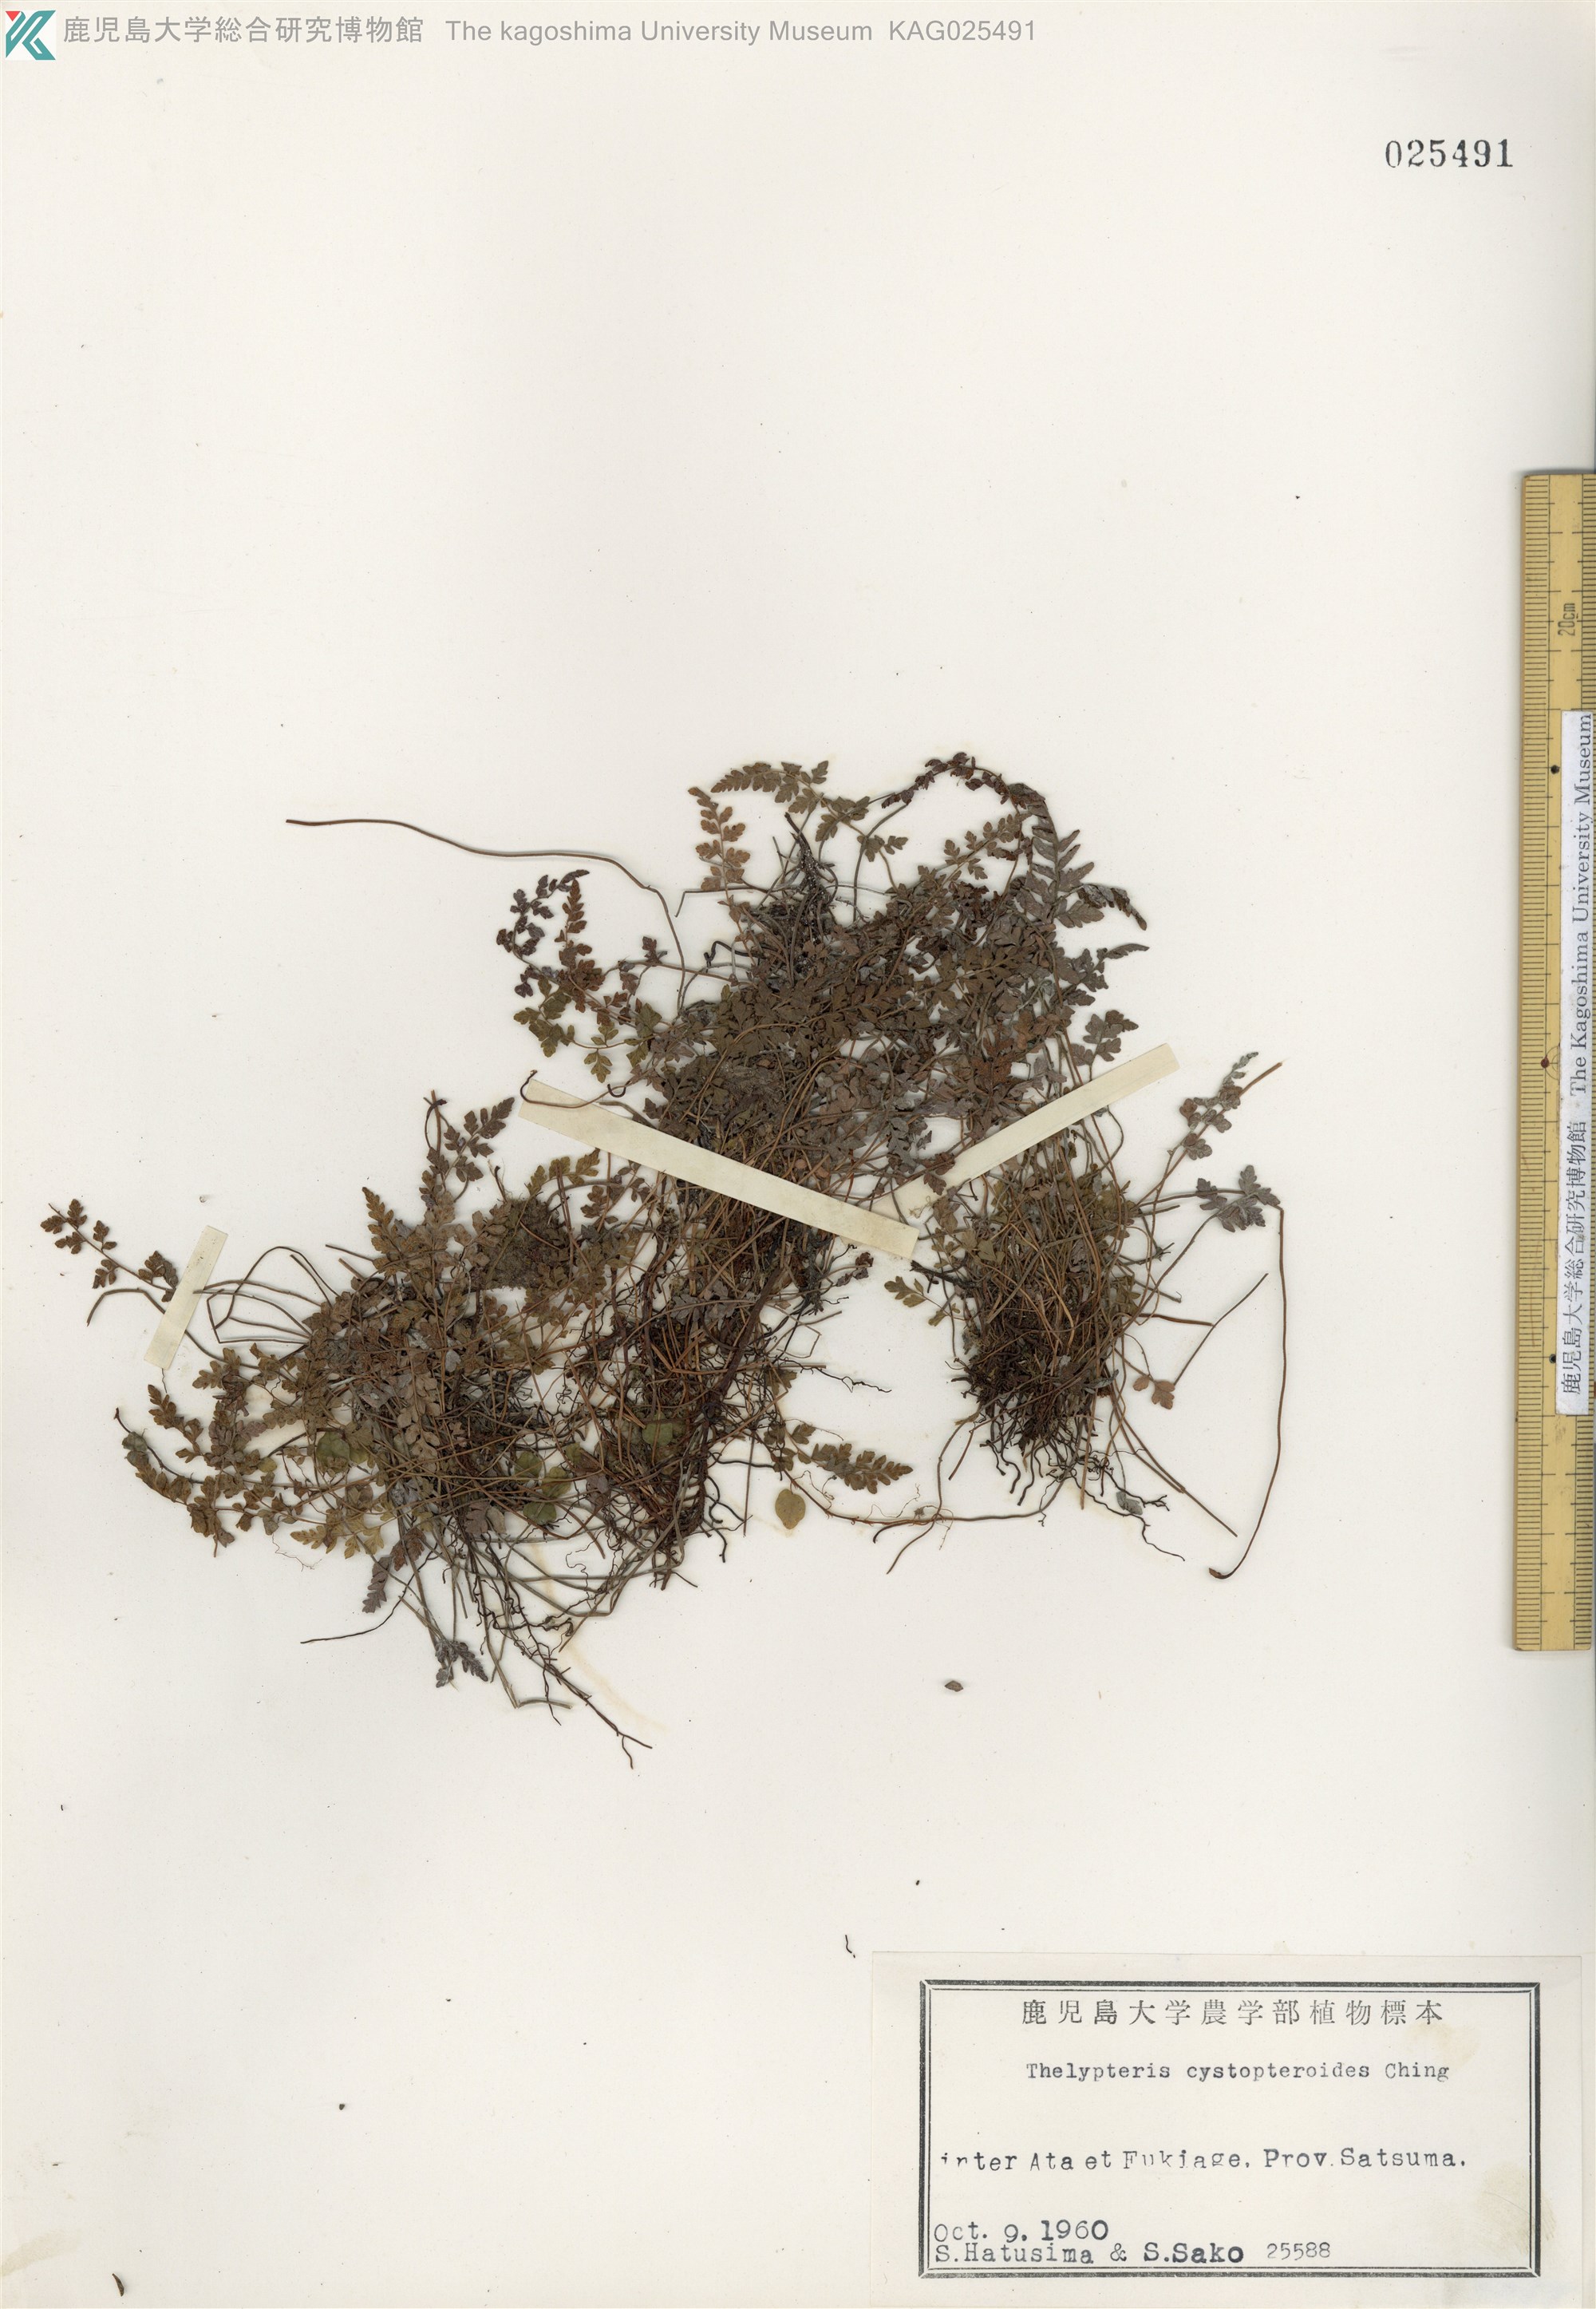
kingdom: Plantae
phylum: Tracheophyta
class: Polypodiopsida
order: Polypodiales
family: Thelypteridaceae
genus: Amauropelta
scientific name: Amauropelta cystopteroides
